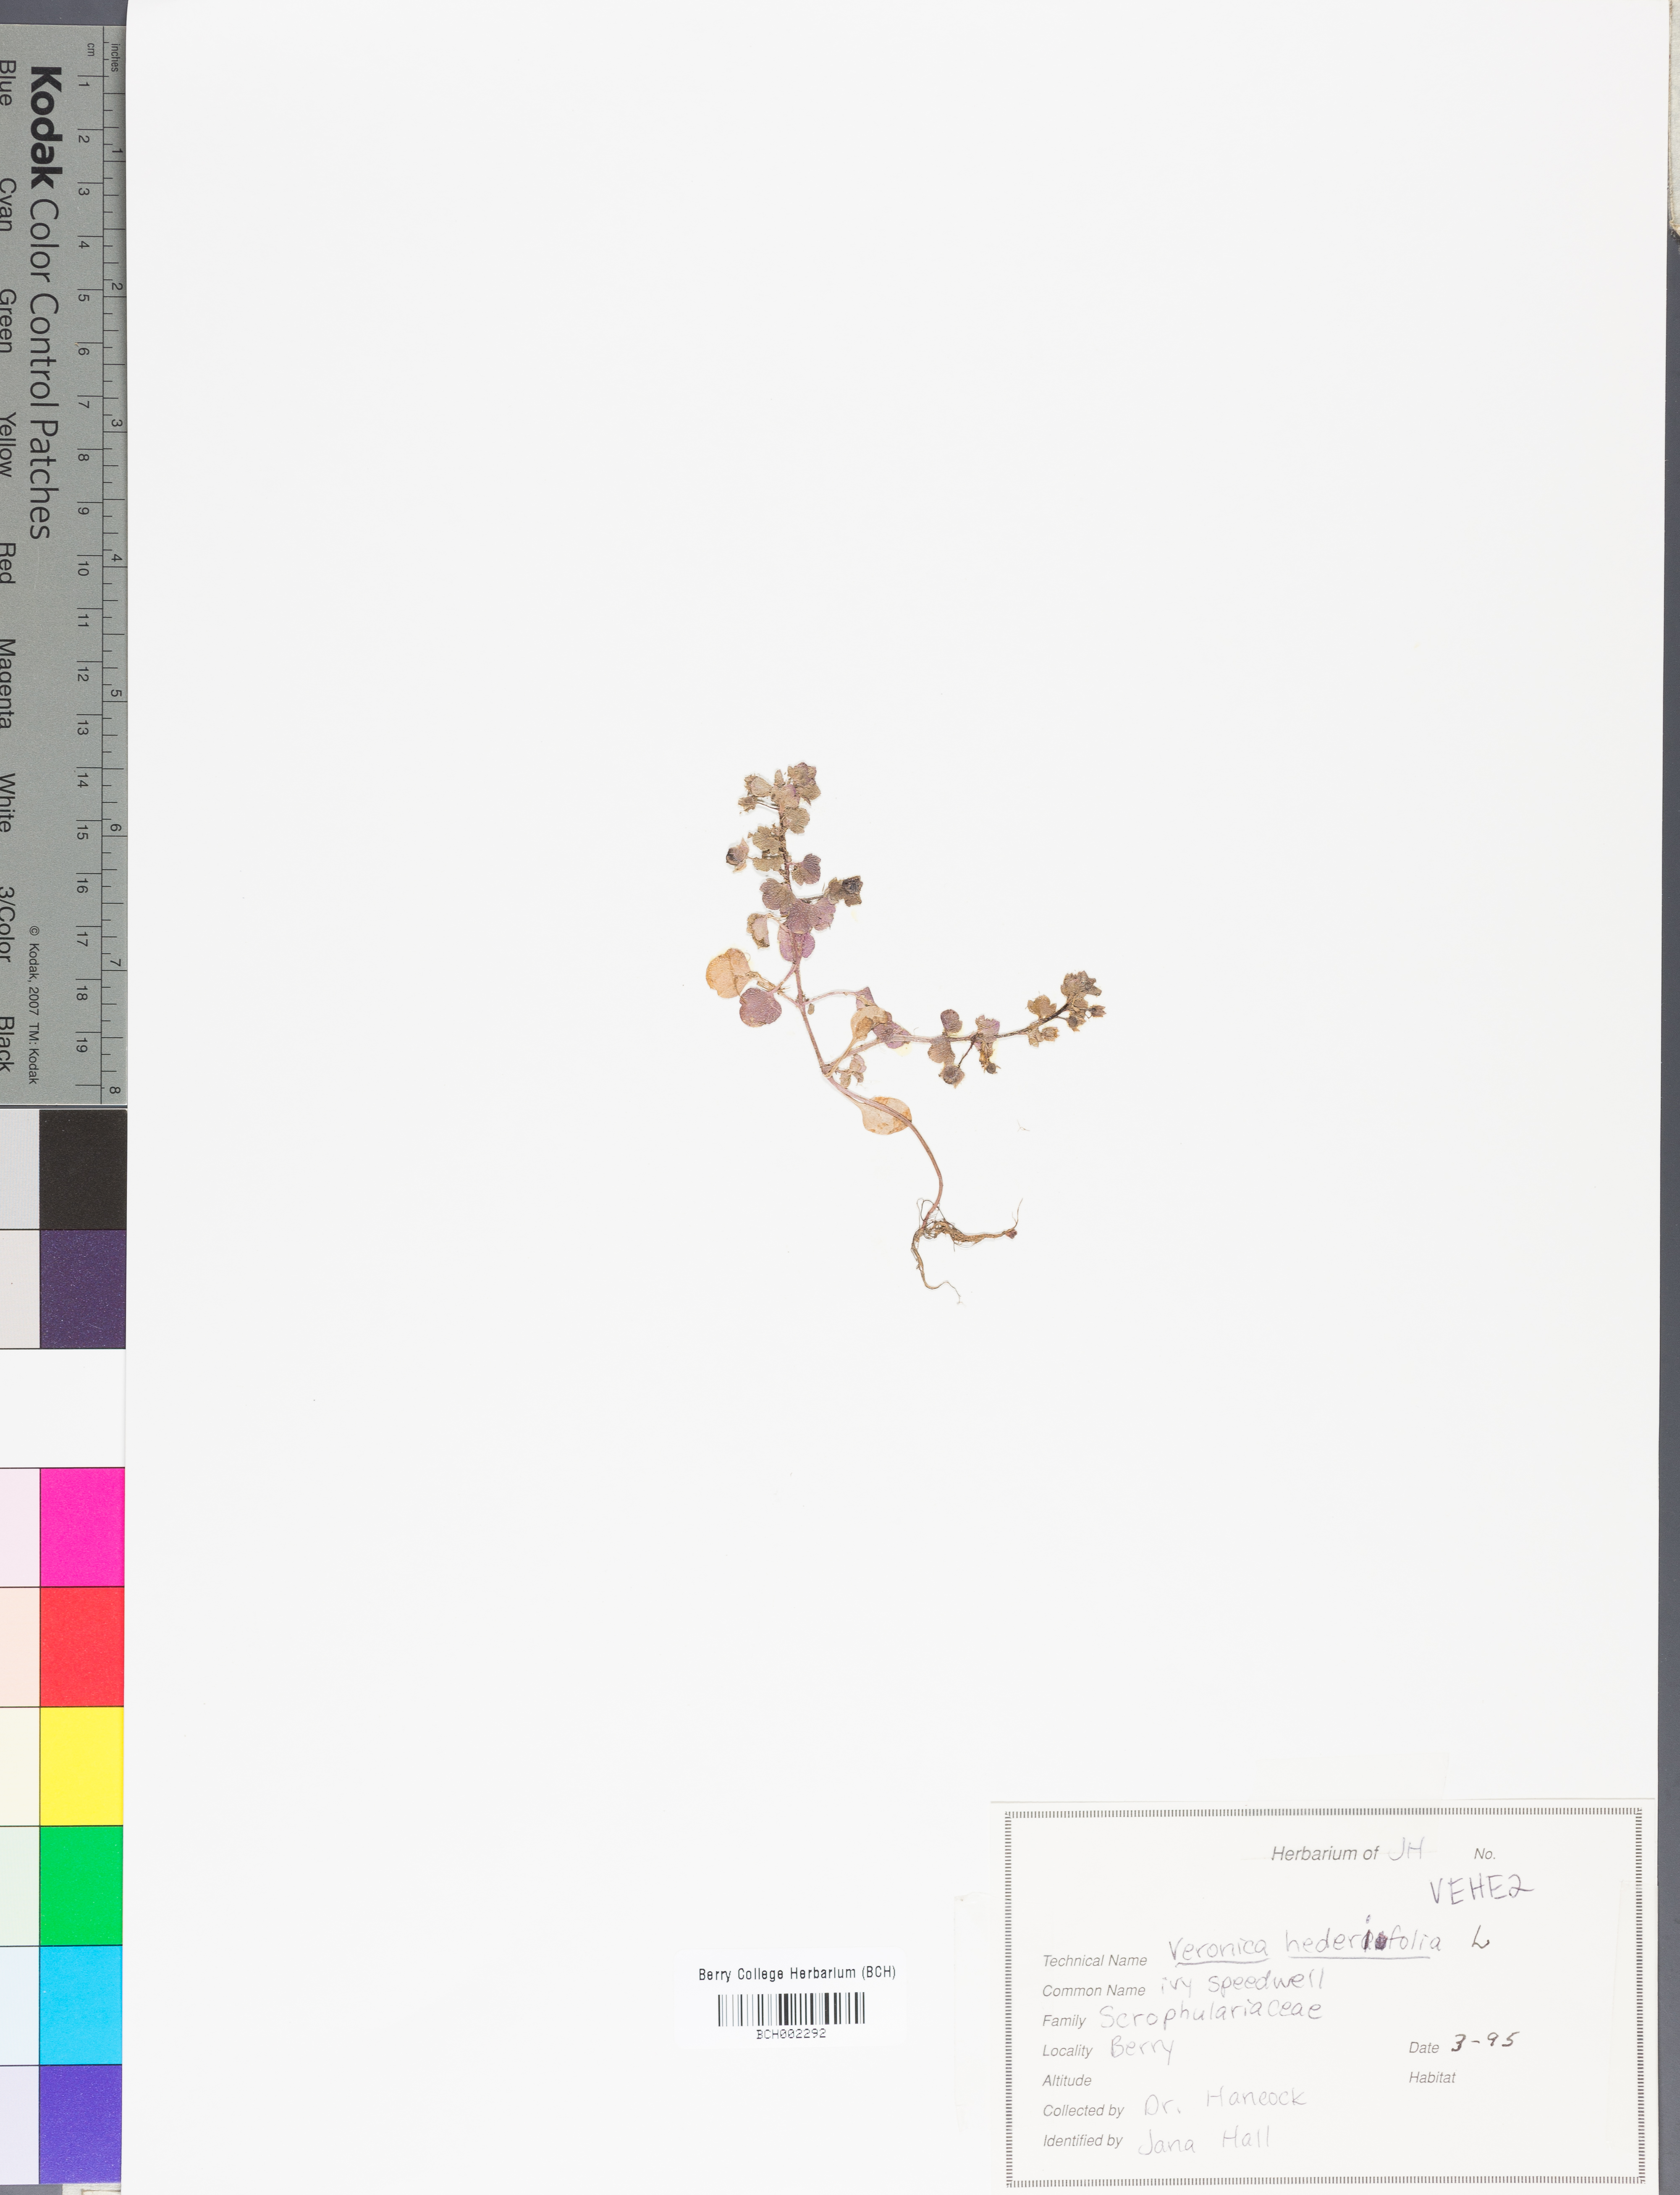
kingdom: Plantae
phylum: Tracheophyta
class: Magnoliopsida
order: Lamiales
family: Plantaginaceae
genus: Veronica
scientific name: Veronica hederifolia
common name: Ivy-leaved speedwell
